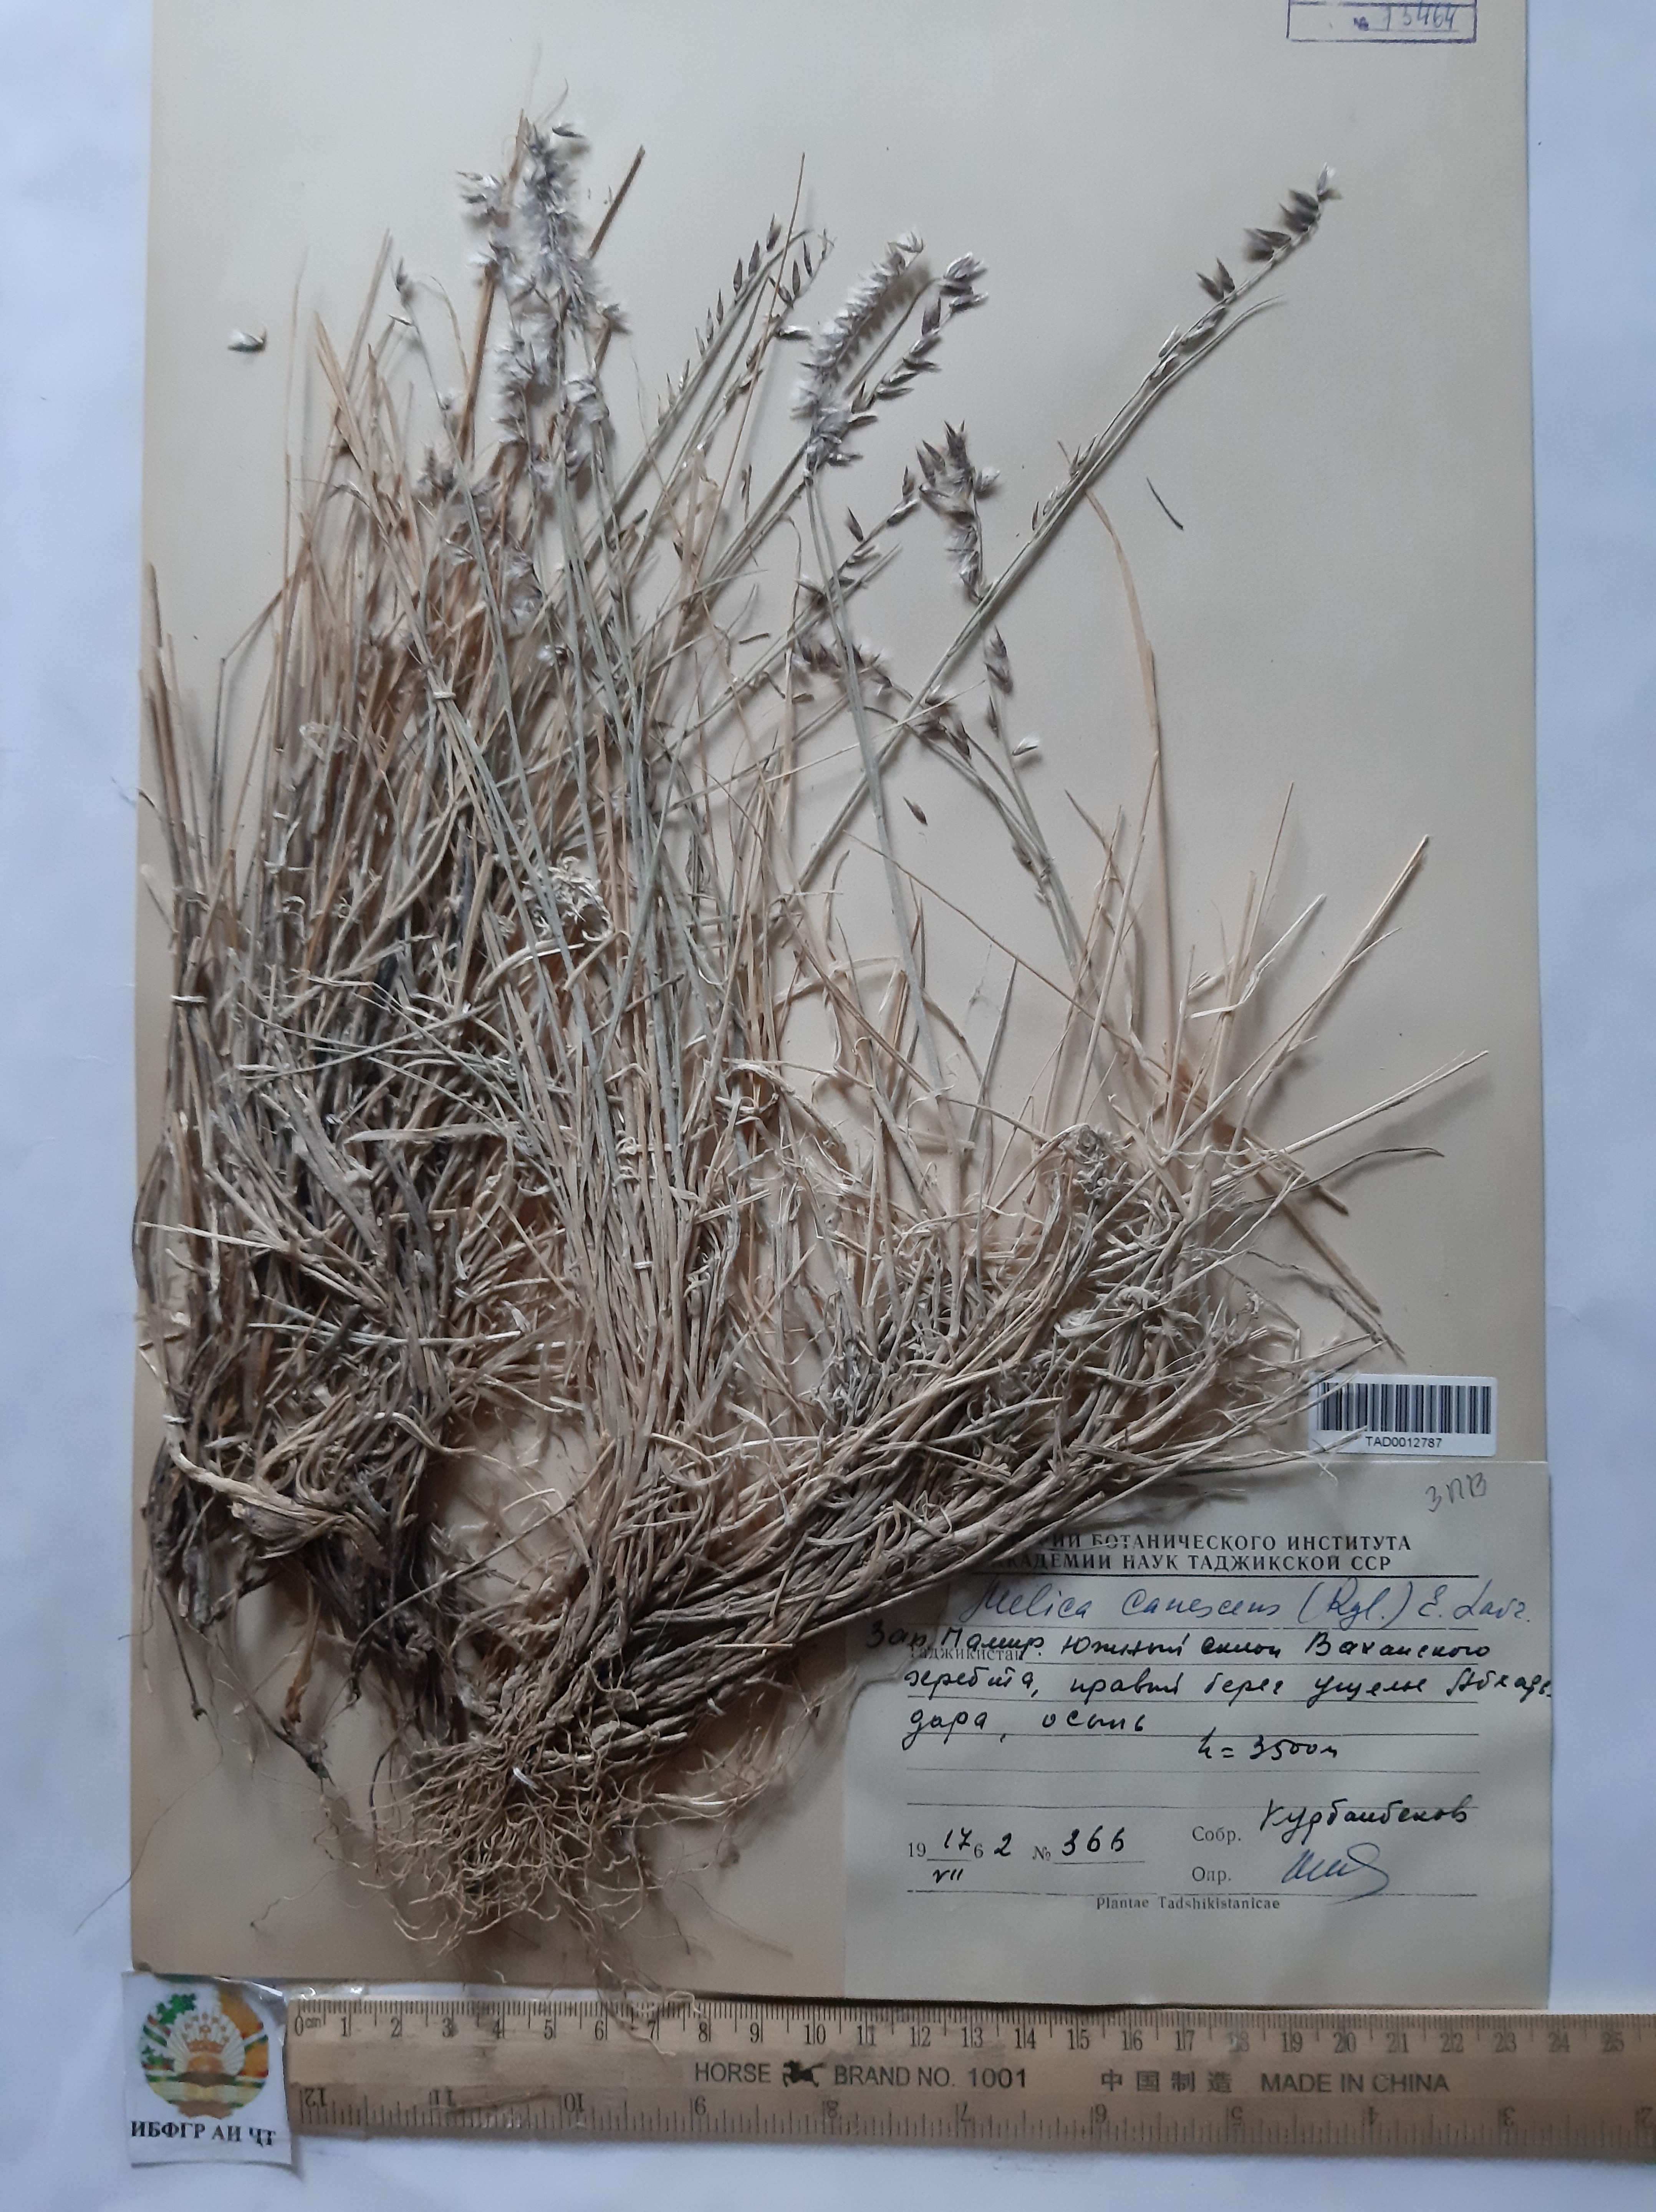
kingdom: Plantae
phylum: Tracheophyta
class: Liliopsida
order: Poales
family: Poaceae
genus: Melica
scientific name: Melica persica
